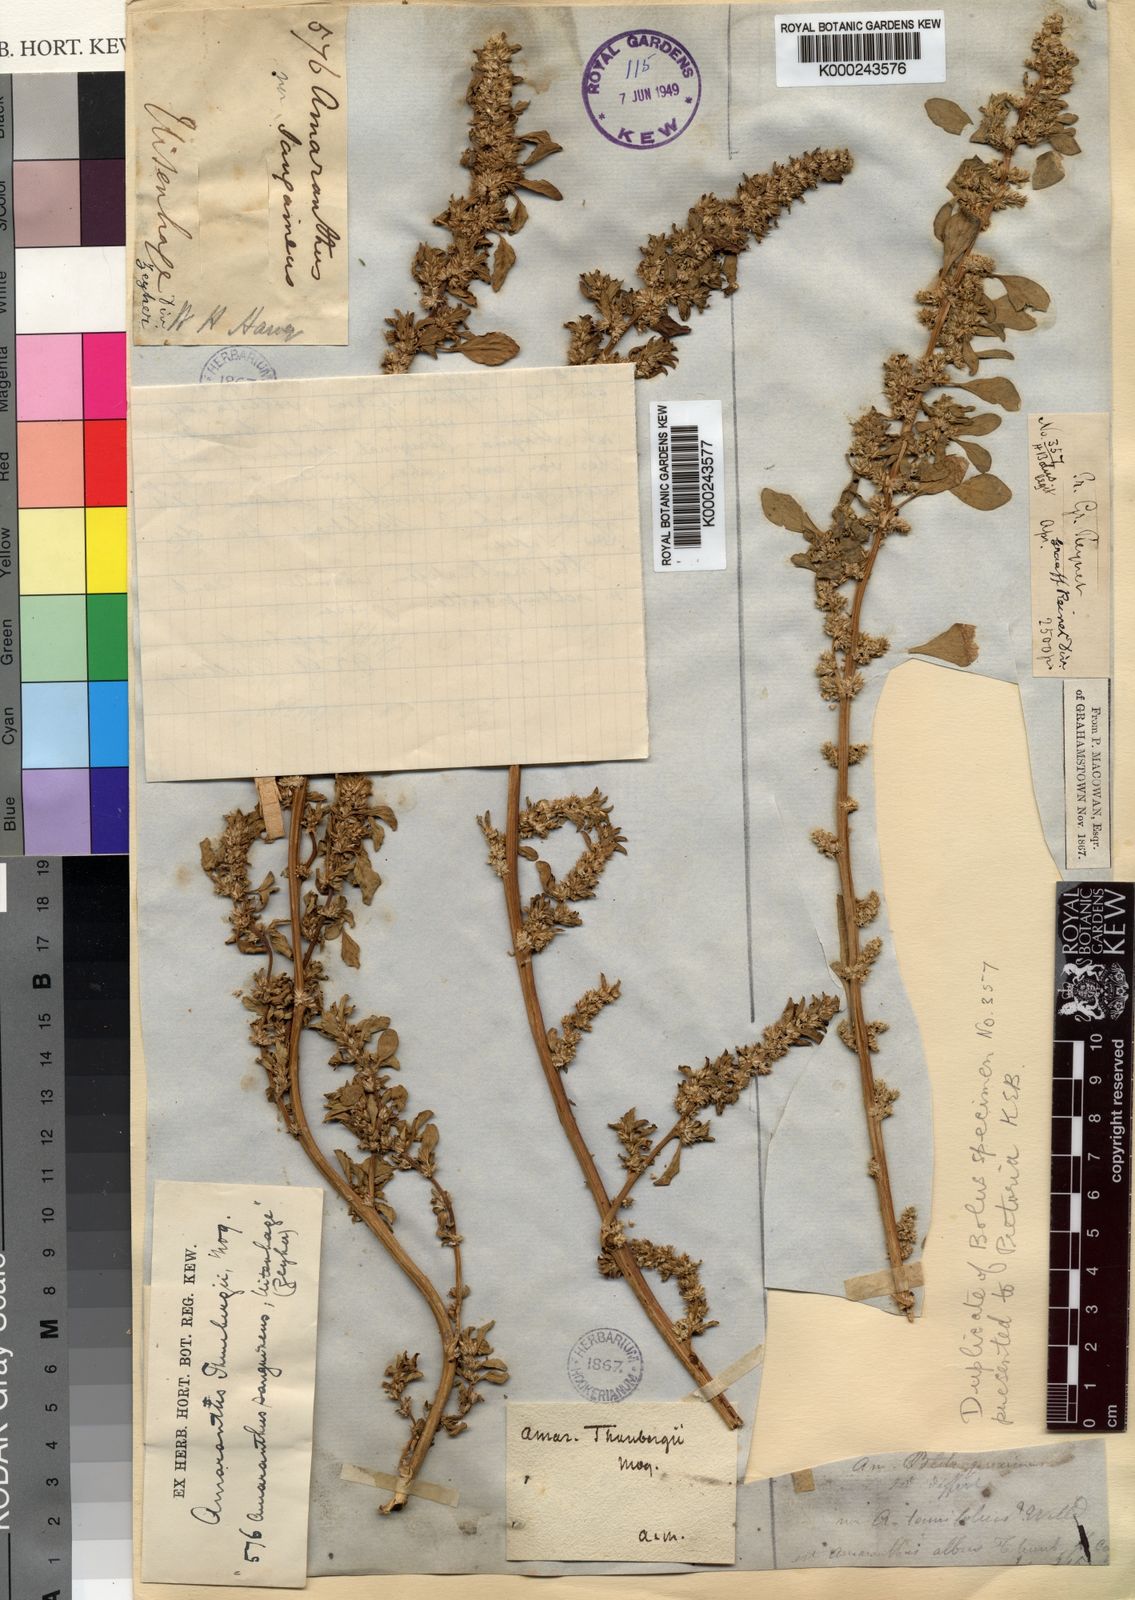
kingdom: Plantae
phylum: Tracheophyta
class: Magnoliopsida
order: Caryophyllales
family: Amaranthaceae
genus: Amaranthus
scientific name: Amaranthus thunbergii
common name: Thunberg's pigweed
